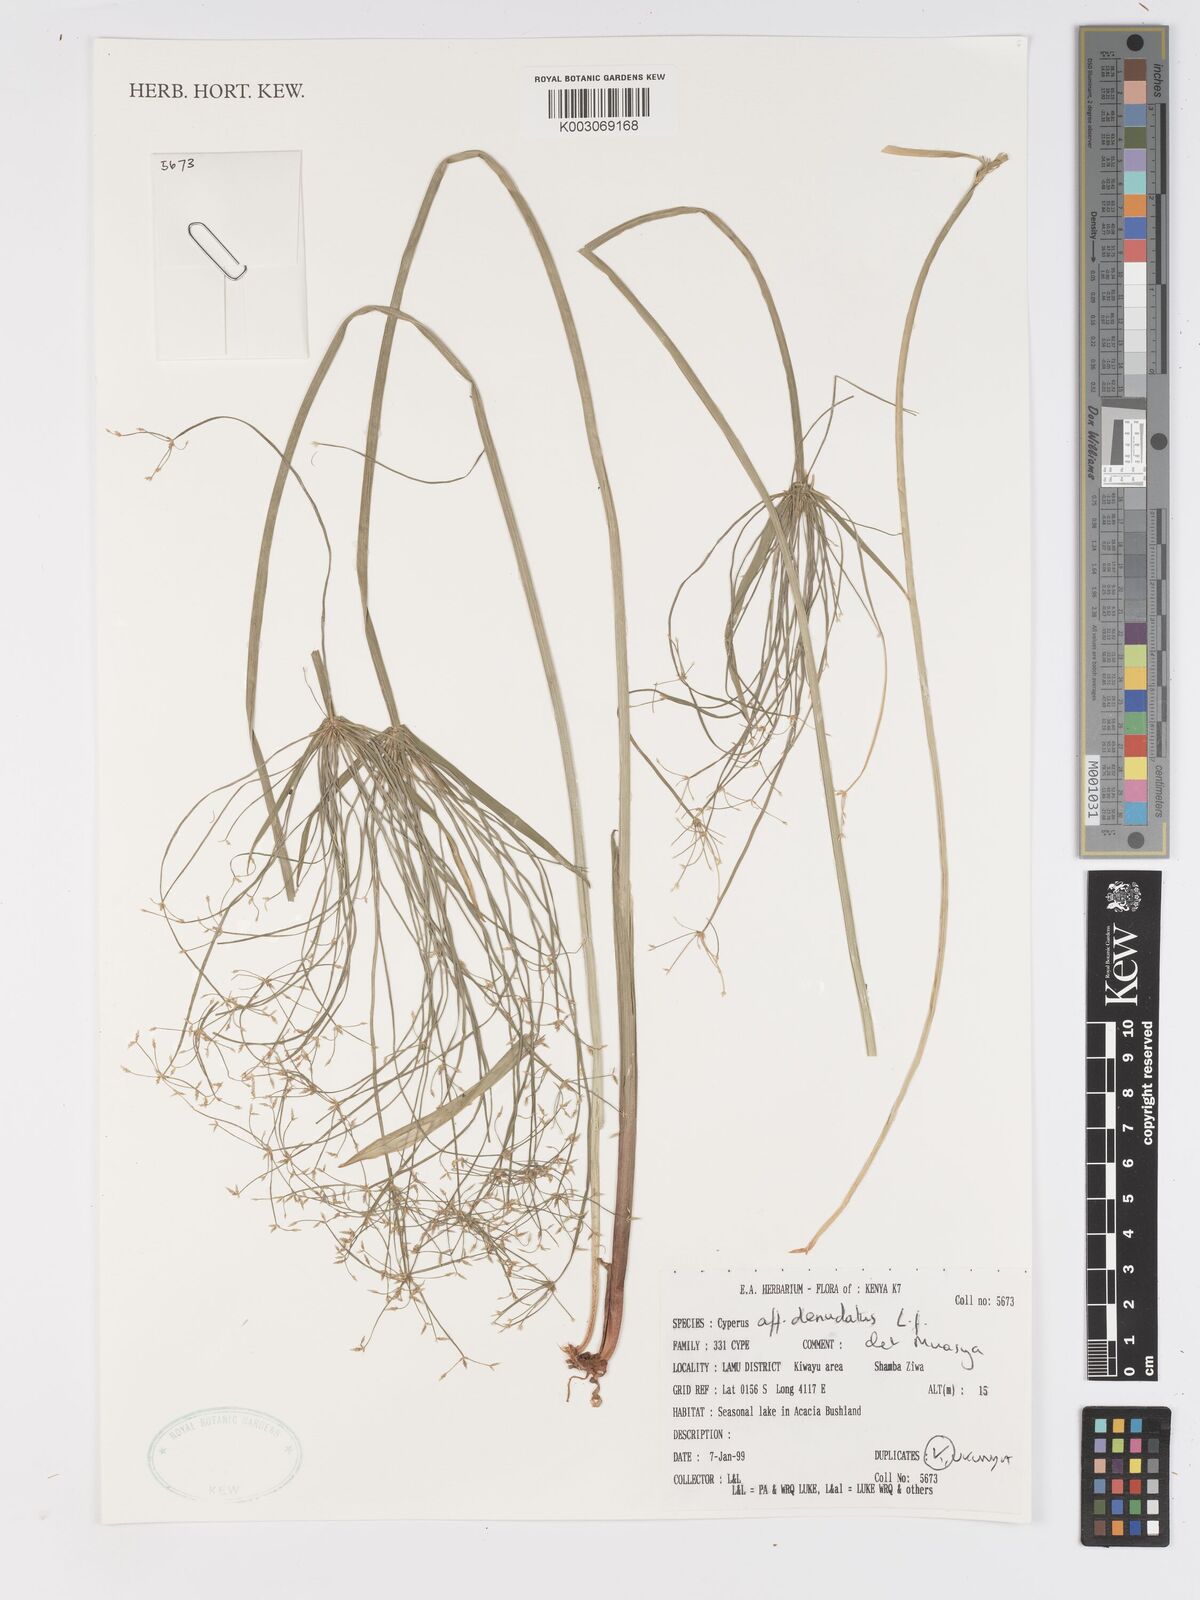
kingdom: Plantae
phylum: Tracheophyta
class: Liliopsida
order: Poales
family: Cyperaceae
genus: Cyperus
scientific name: Cyperus denudatus
